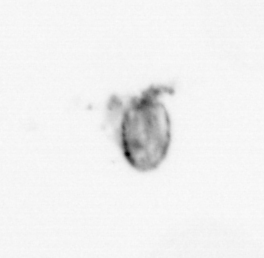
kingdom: Animalia
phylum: Mollusca
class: Gastropoda
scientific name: Gastropoda
